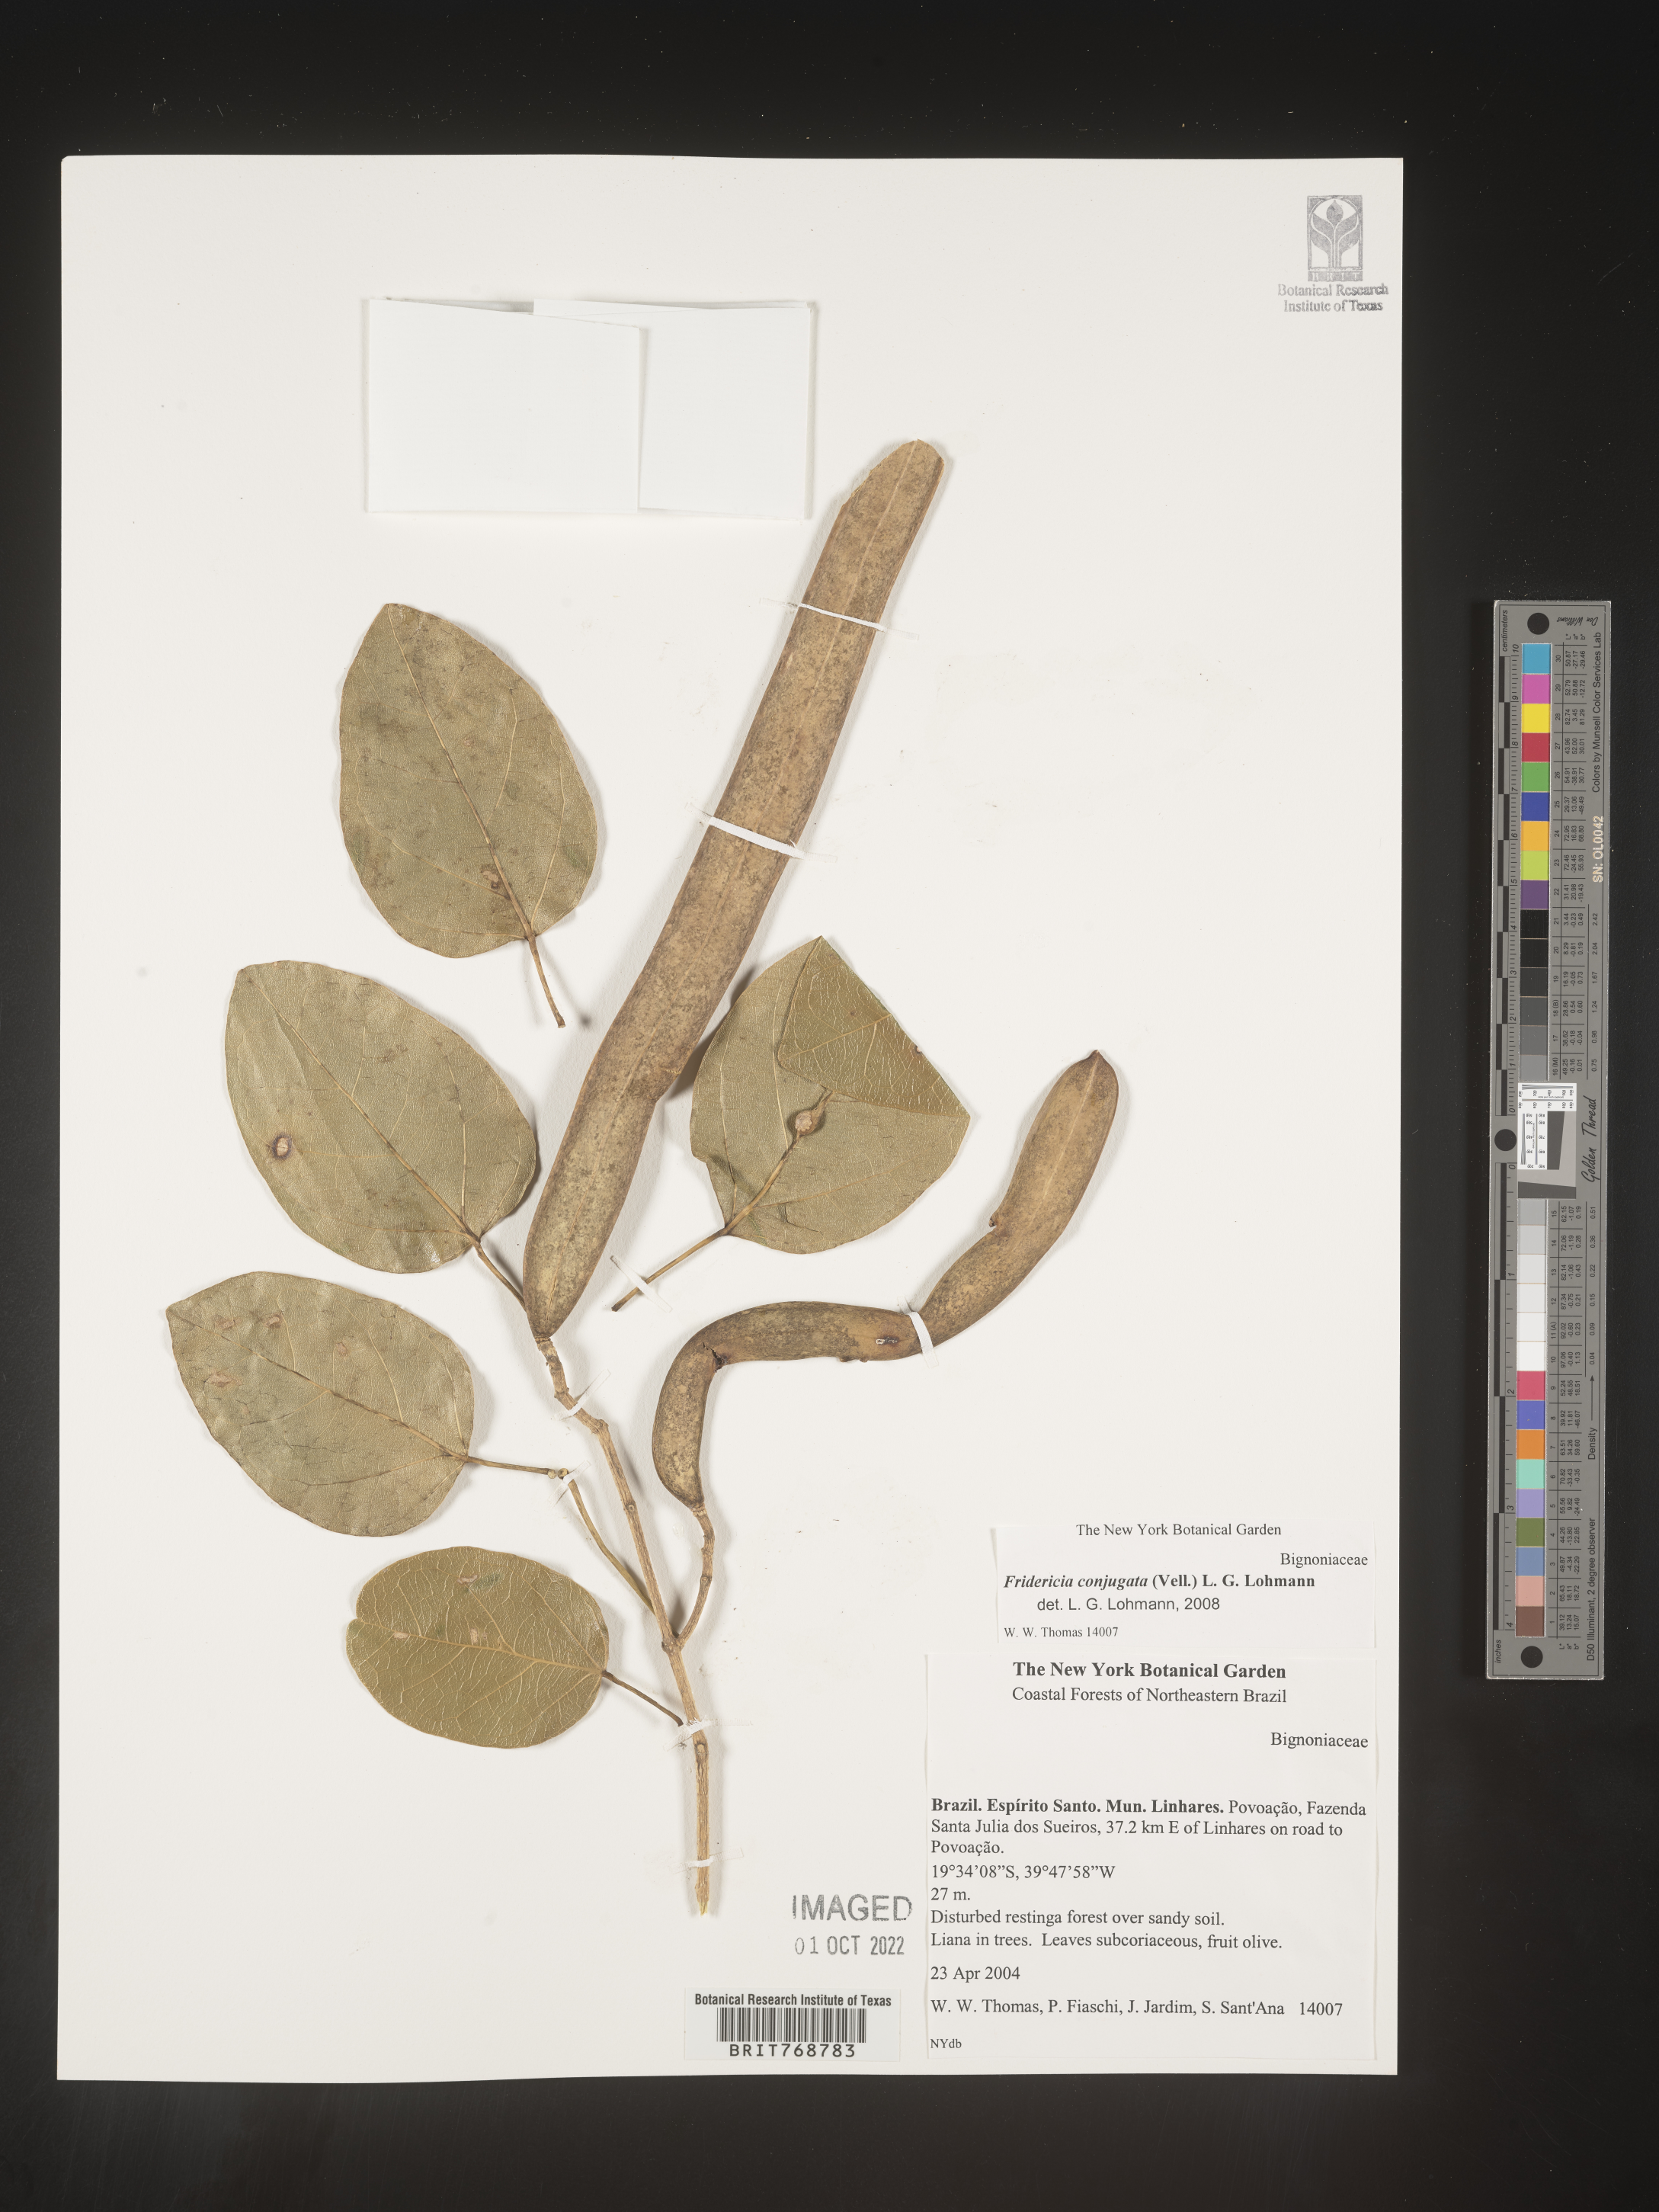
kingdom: Plantae
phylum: Tracheophyta
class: Magnoliopsida
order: Lamiales
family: Bignoniaceae
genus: Fridericia
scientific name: Fridericia
